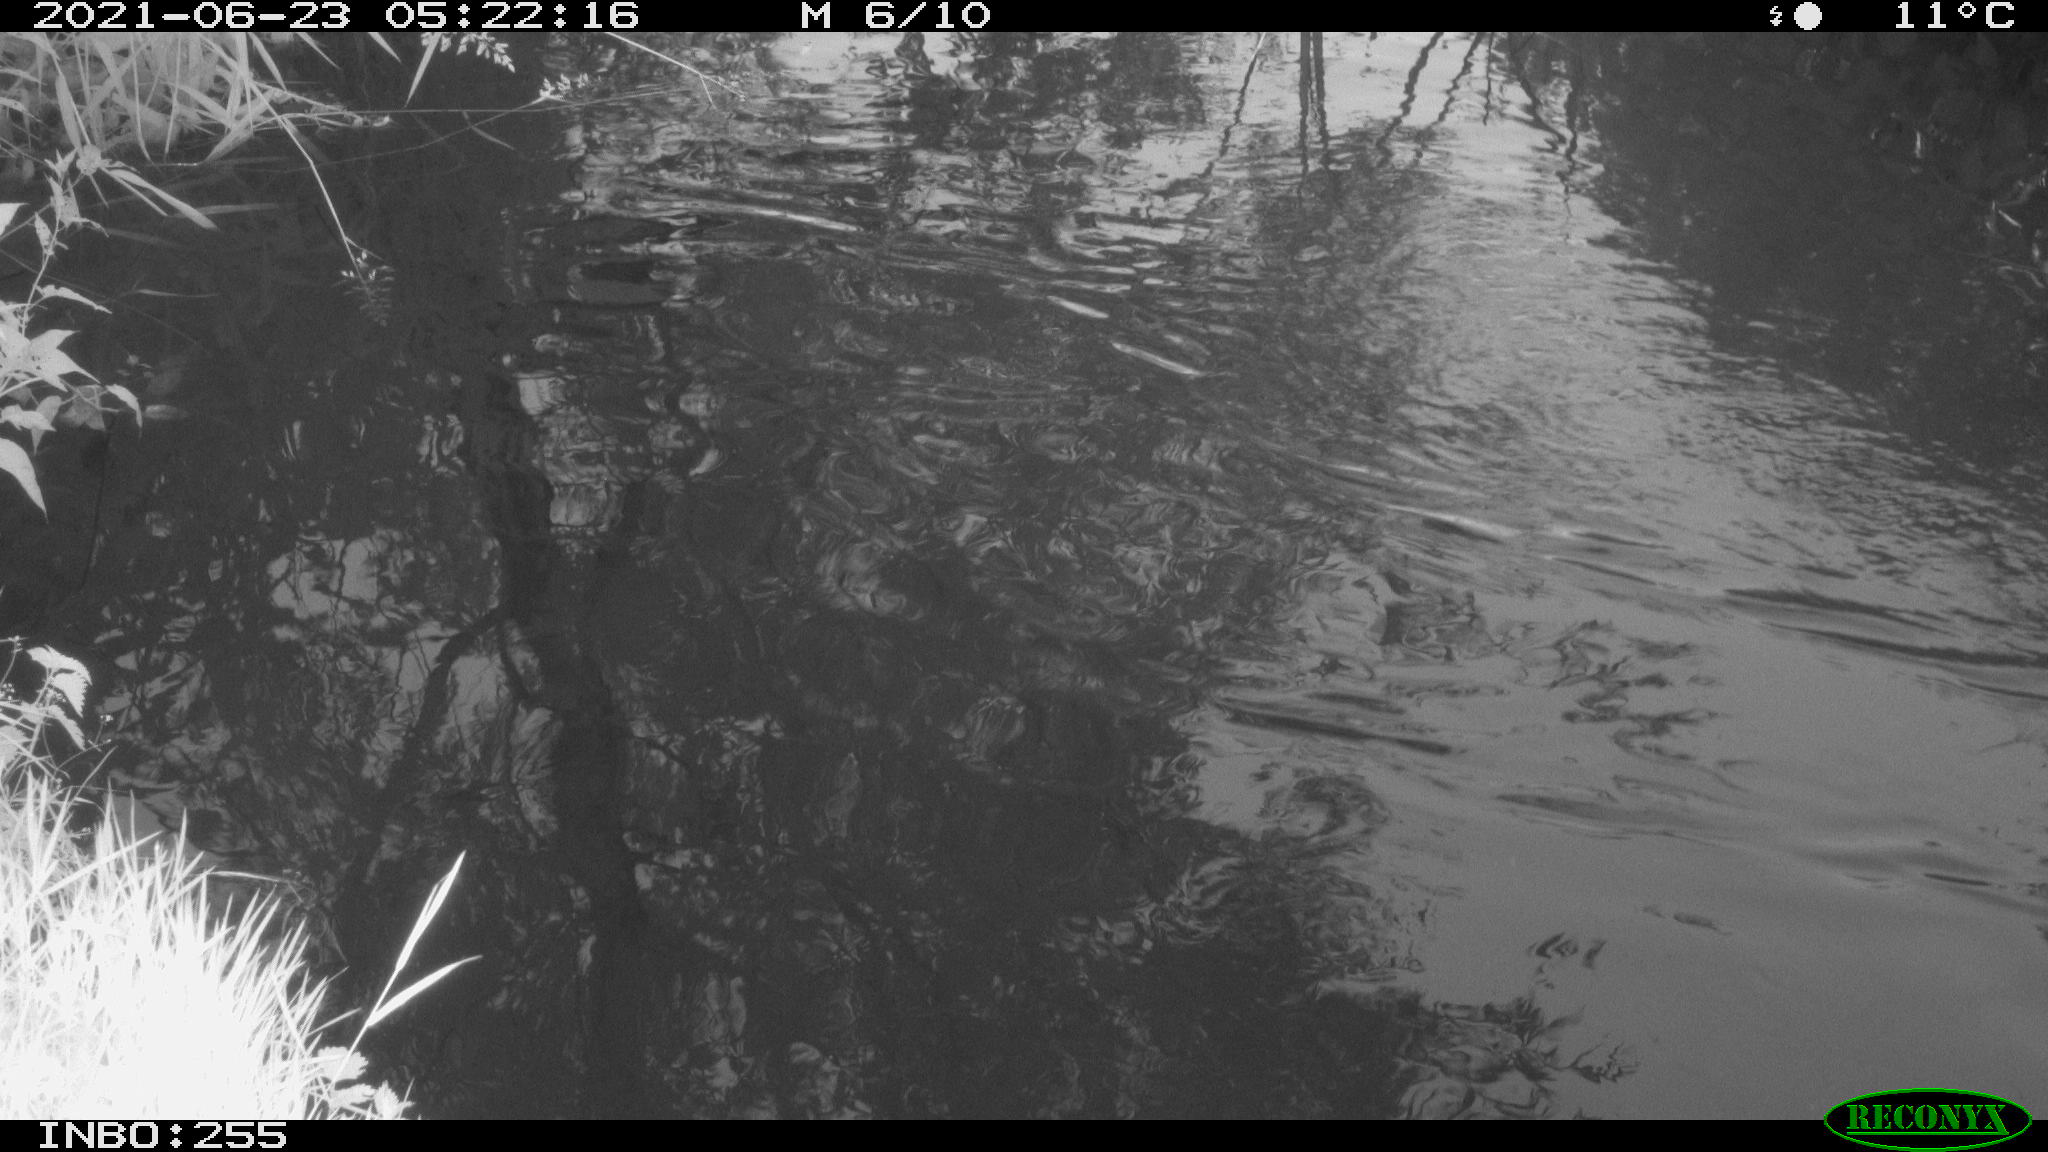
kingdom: Animalia
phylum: Chordata
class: Aves
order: Anseriformes
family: Anatidae
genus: Anas
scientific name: Anas platyrhynchos
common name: Mallard
